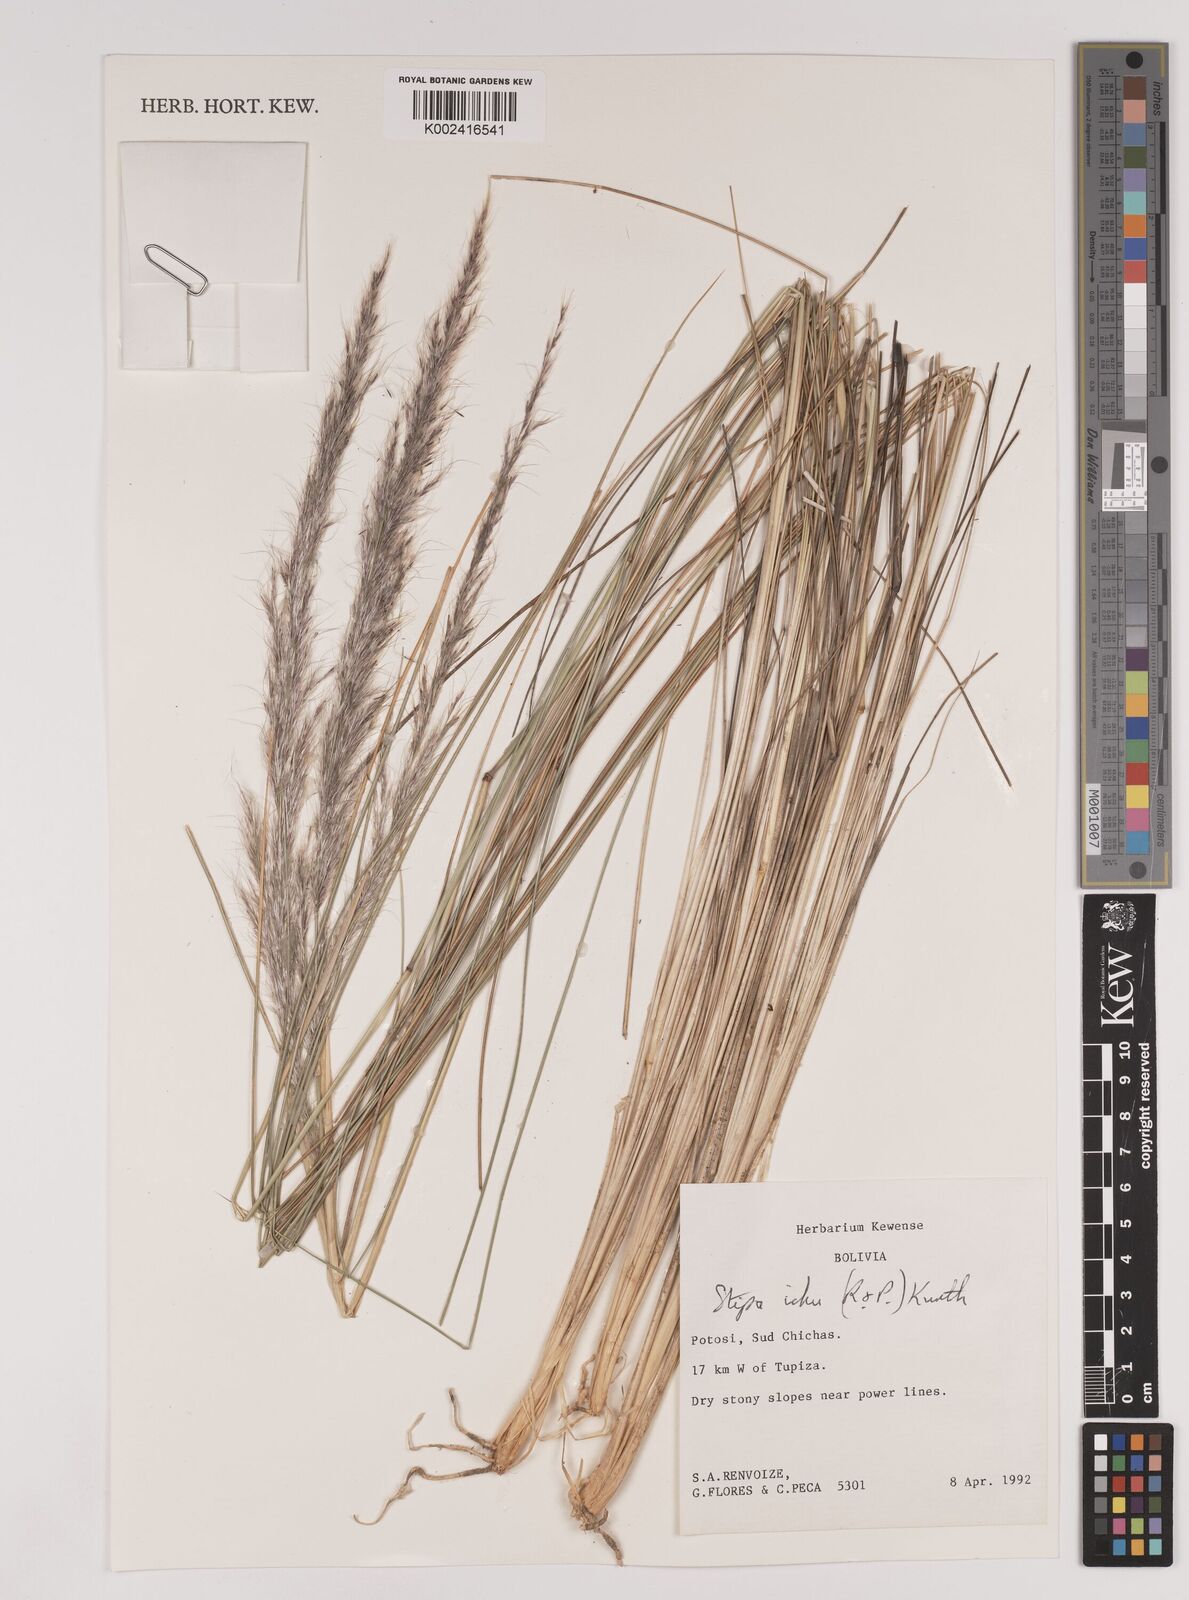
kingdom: Plantae
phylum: Tracheophyta
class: Liliopsida
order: Poales
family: Poaceae
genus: Jarava
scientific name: Jarava ichu
